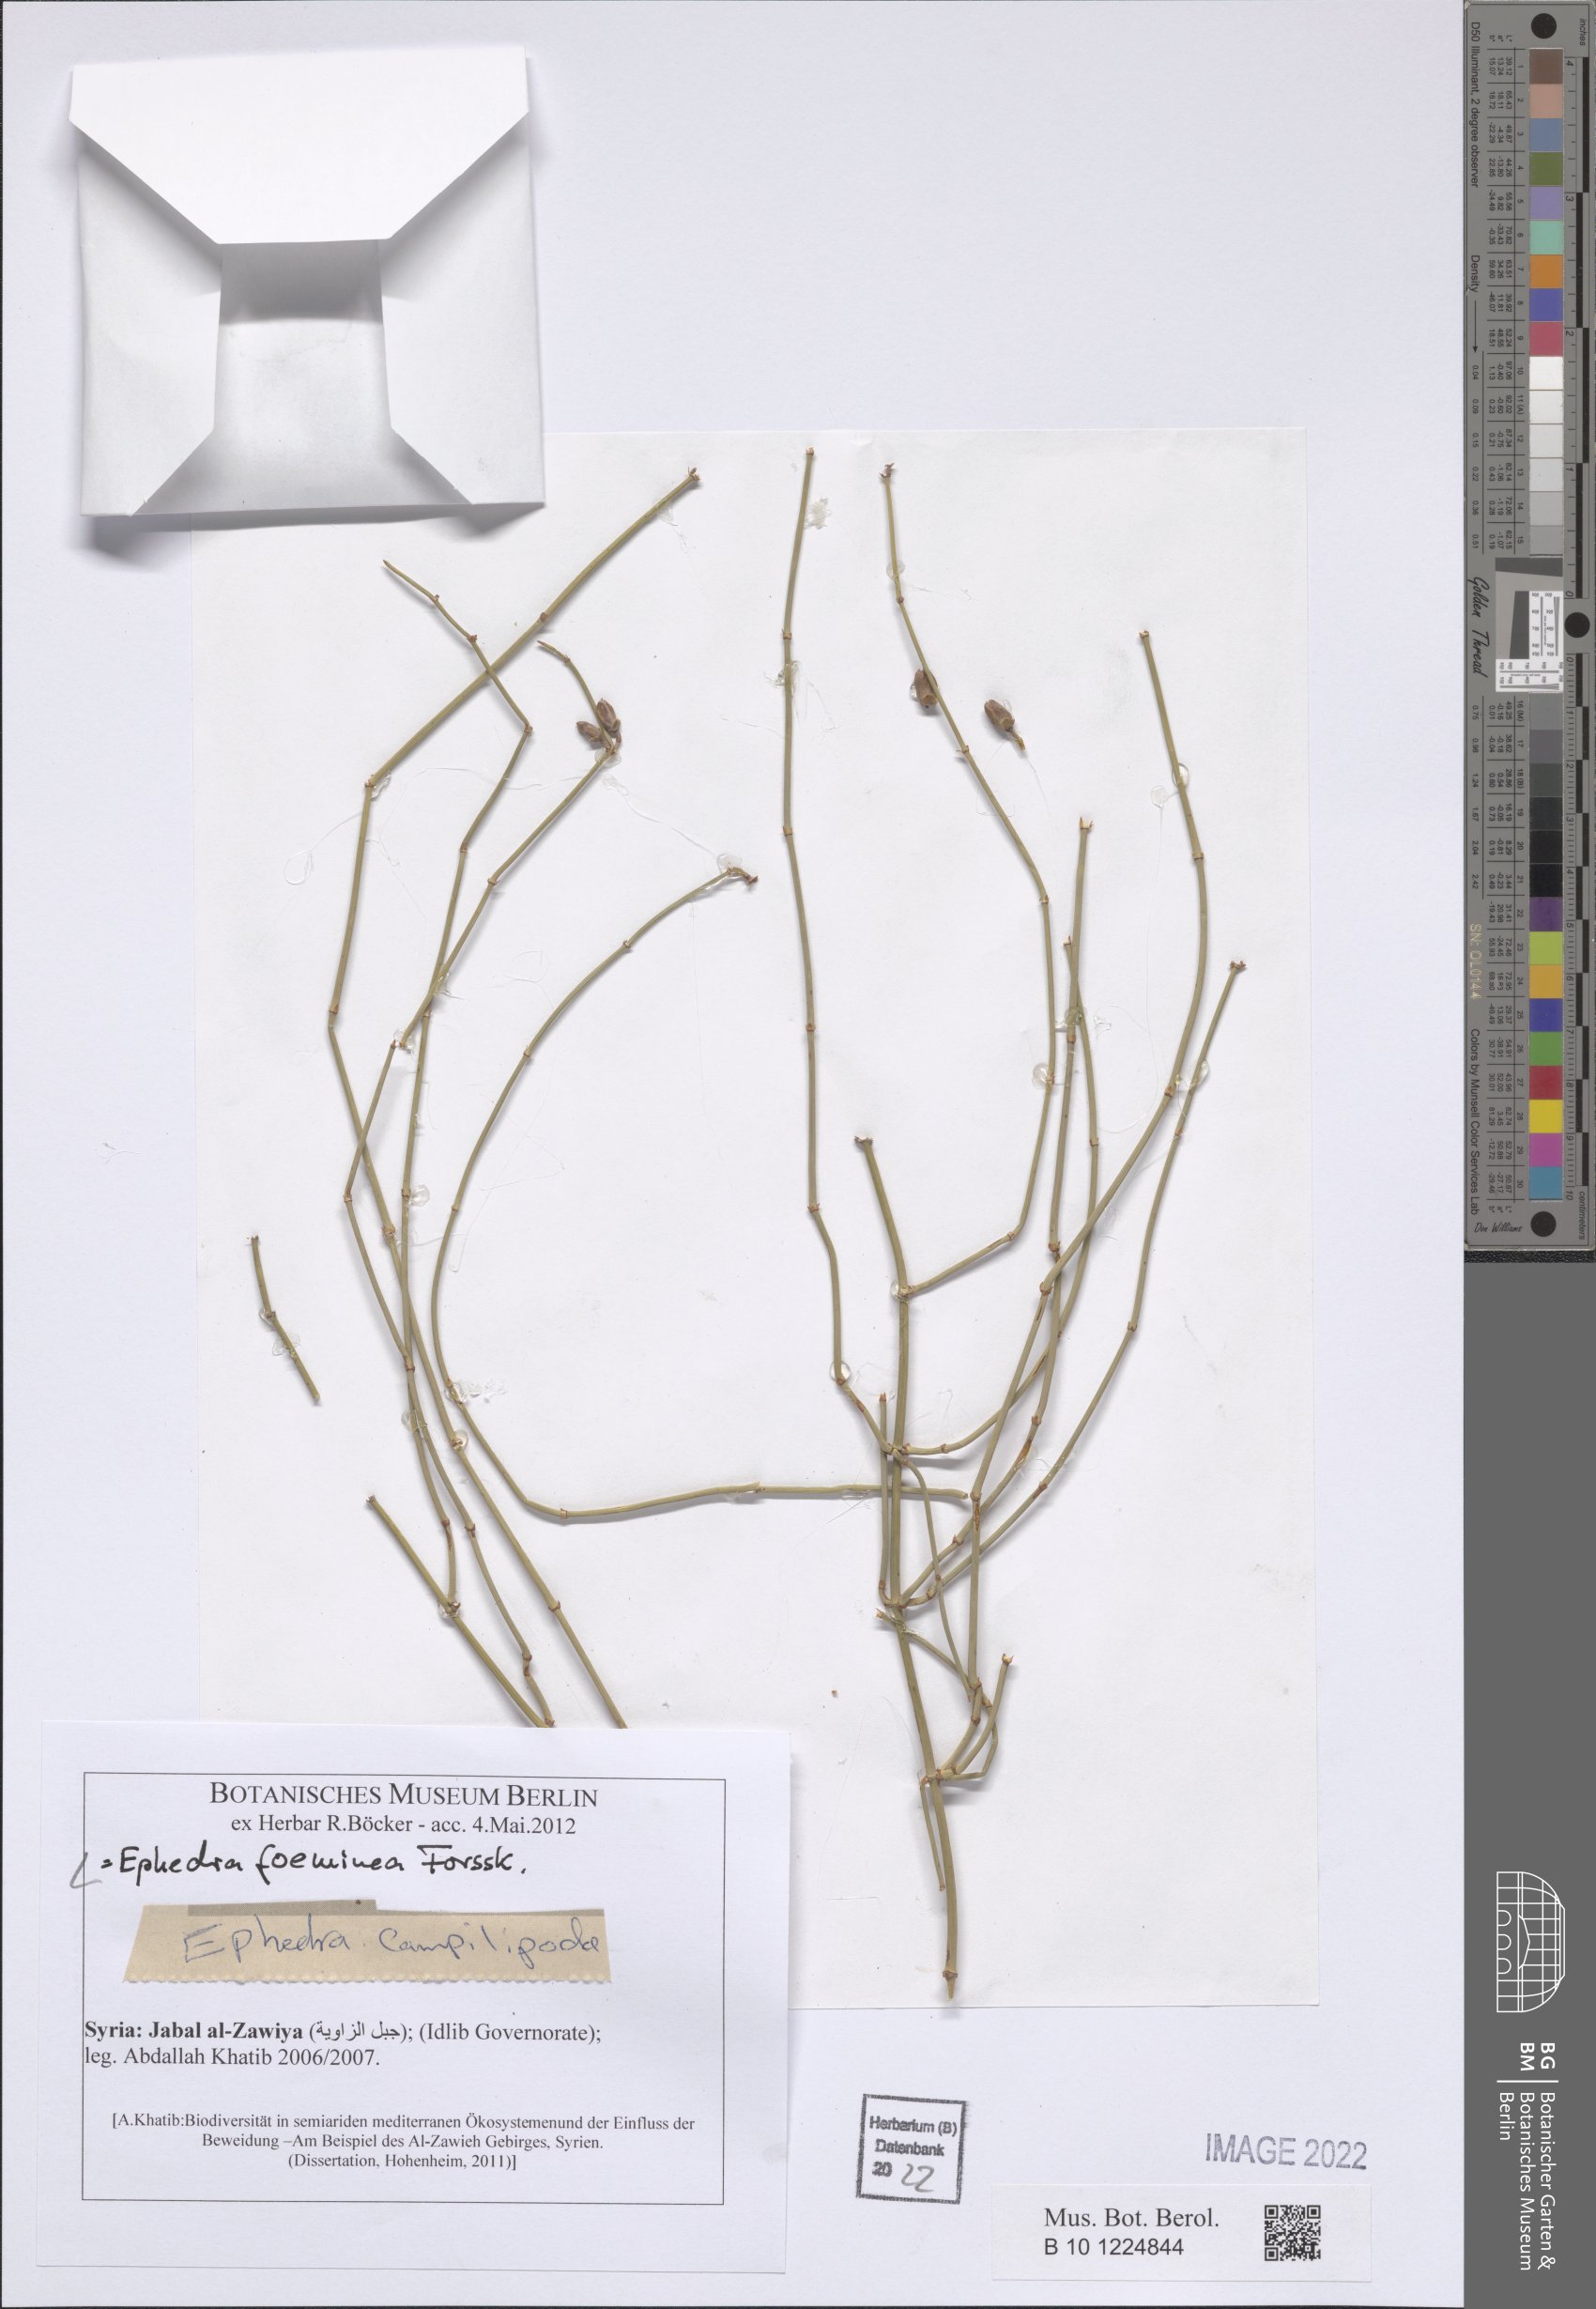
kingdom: Plantae
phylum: Tracheophyta
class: Gnetopsida
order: Ephedrales
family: Ephedraceae
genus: Ephedra
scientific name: Ephedra foeminea
